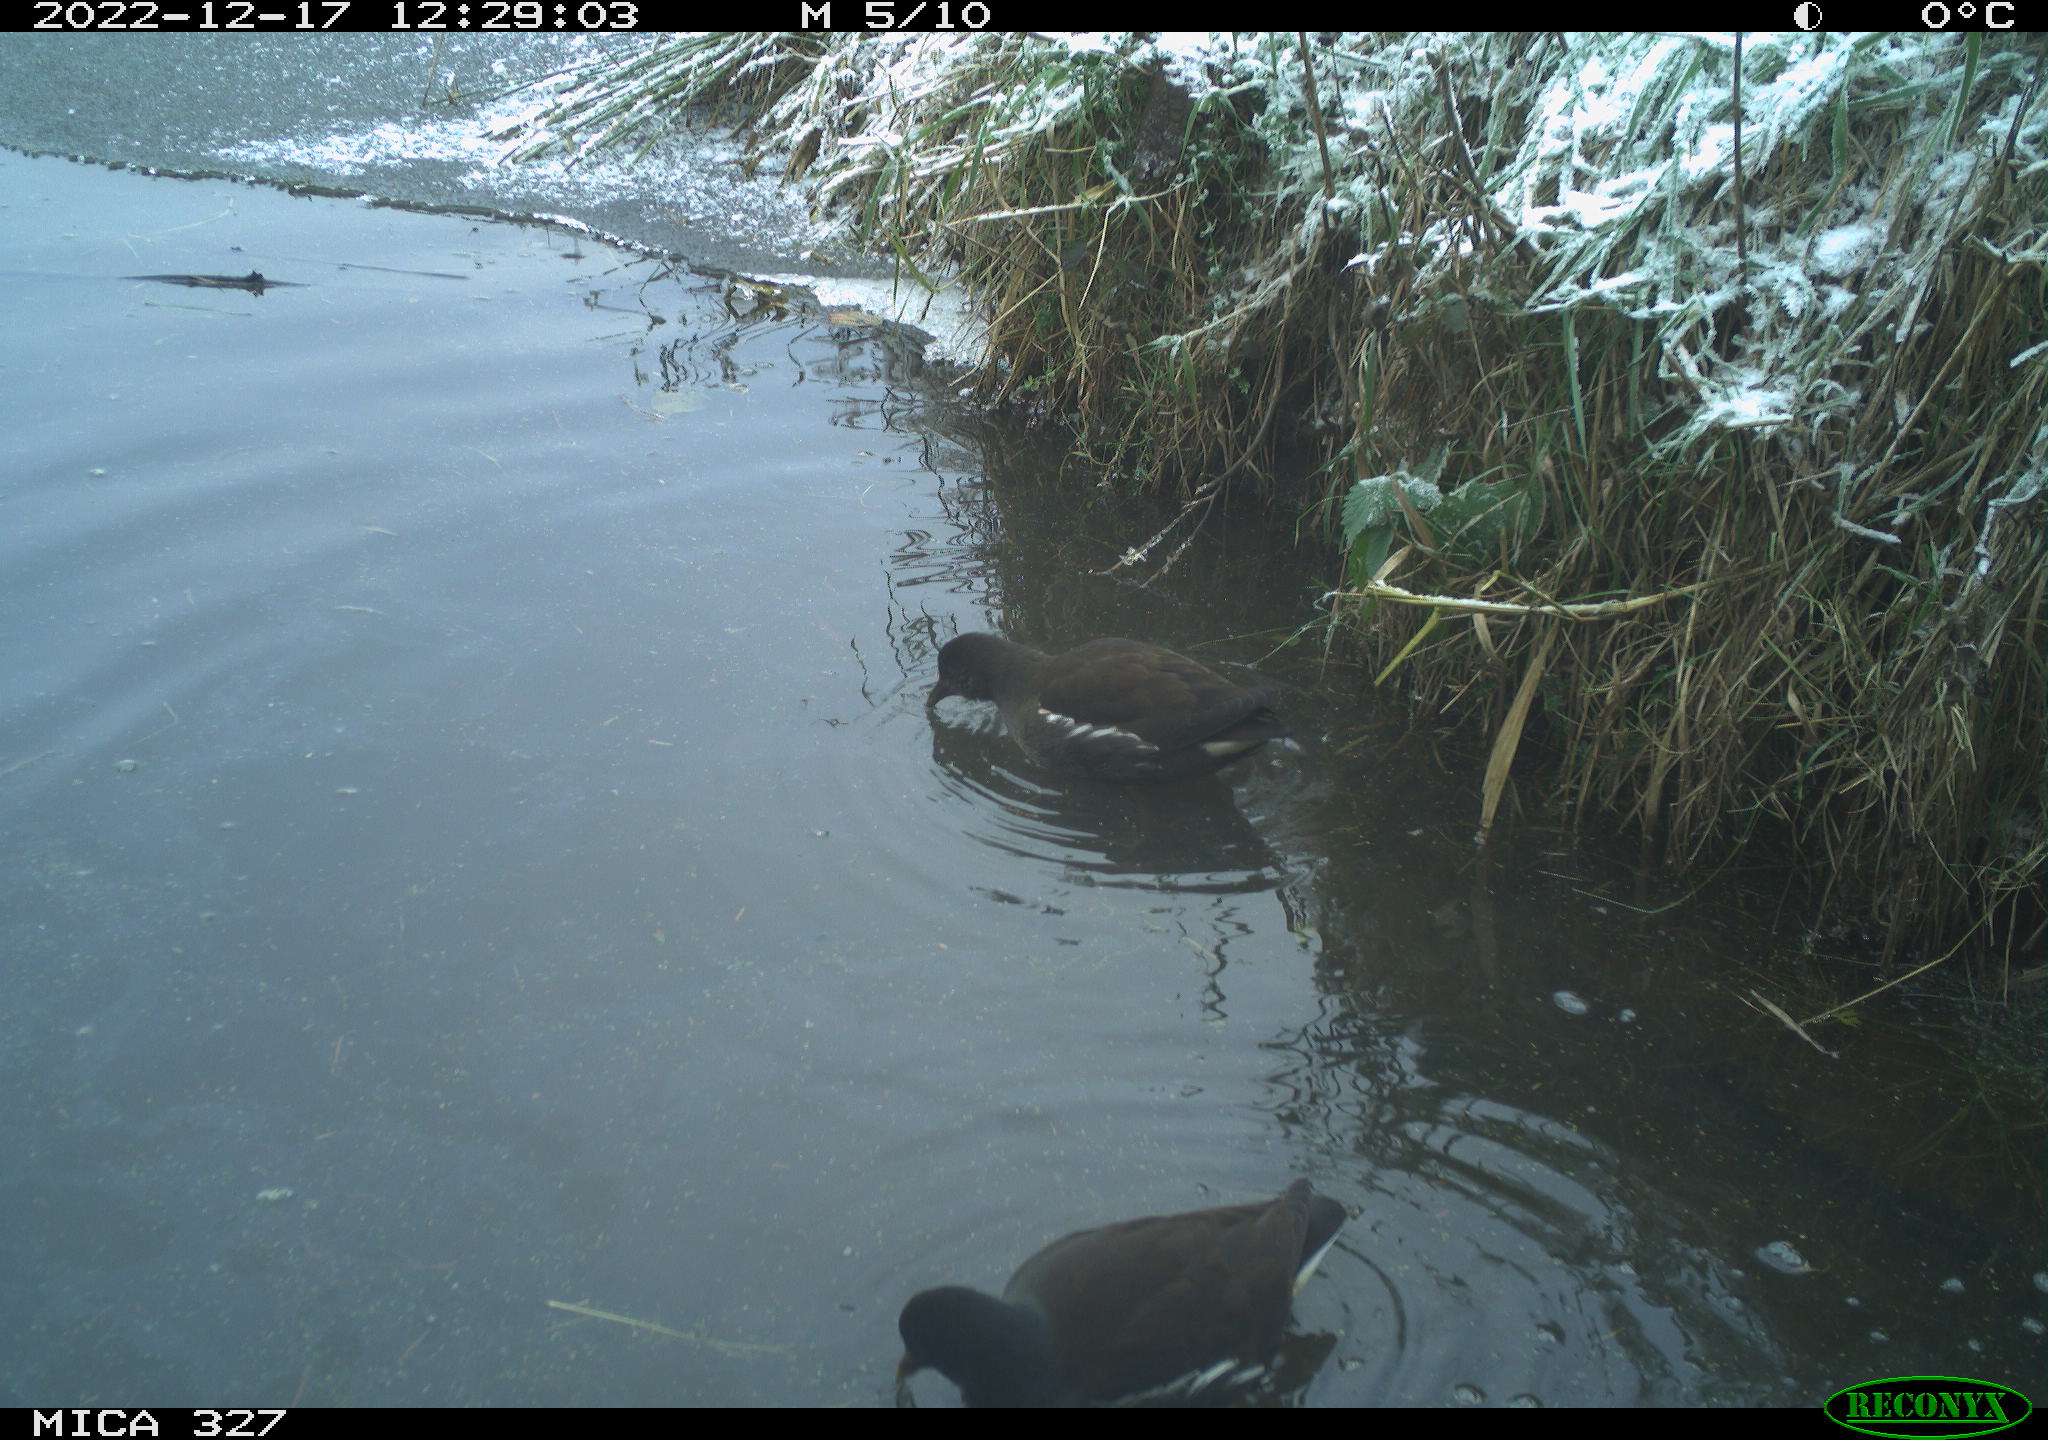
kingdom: Animalia
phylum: Chordata
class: Aves
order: Gruiformes
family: Rallidae
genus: Gallinula
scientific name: Gallinula chloropus
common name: Common moorhen
